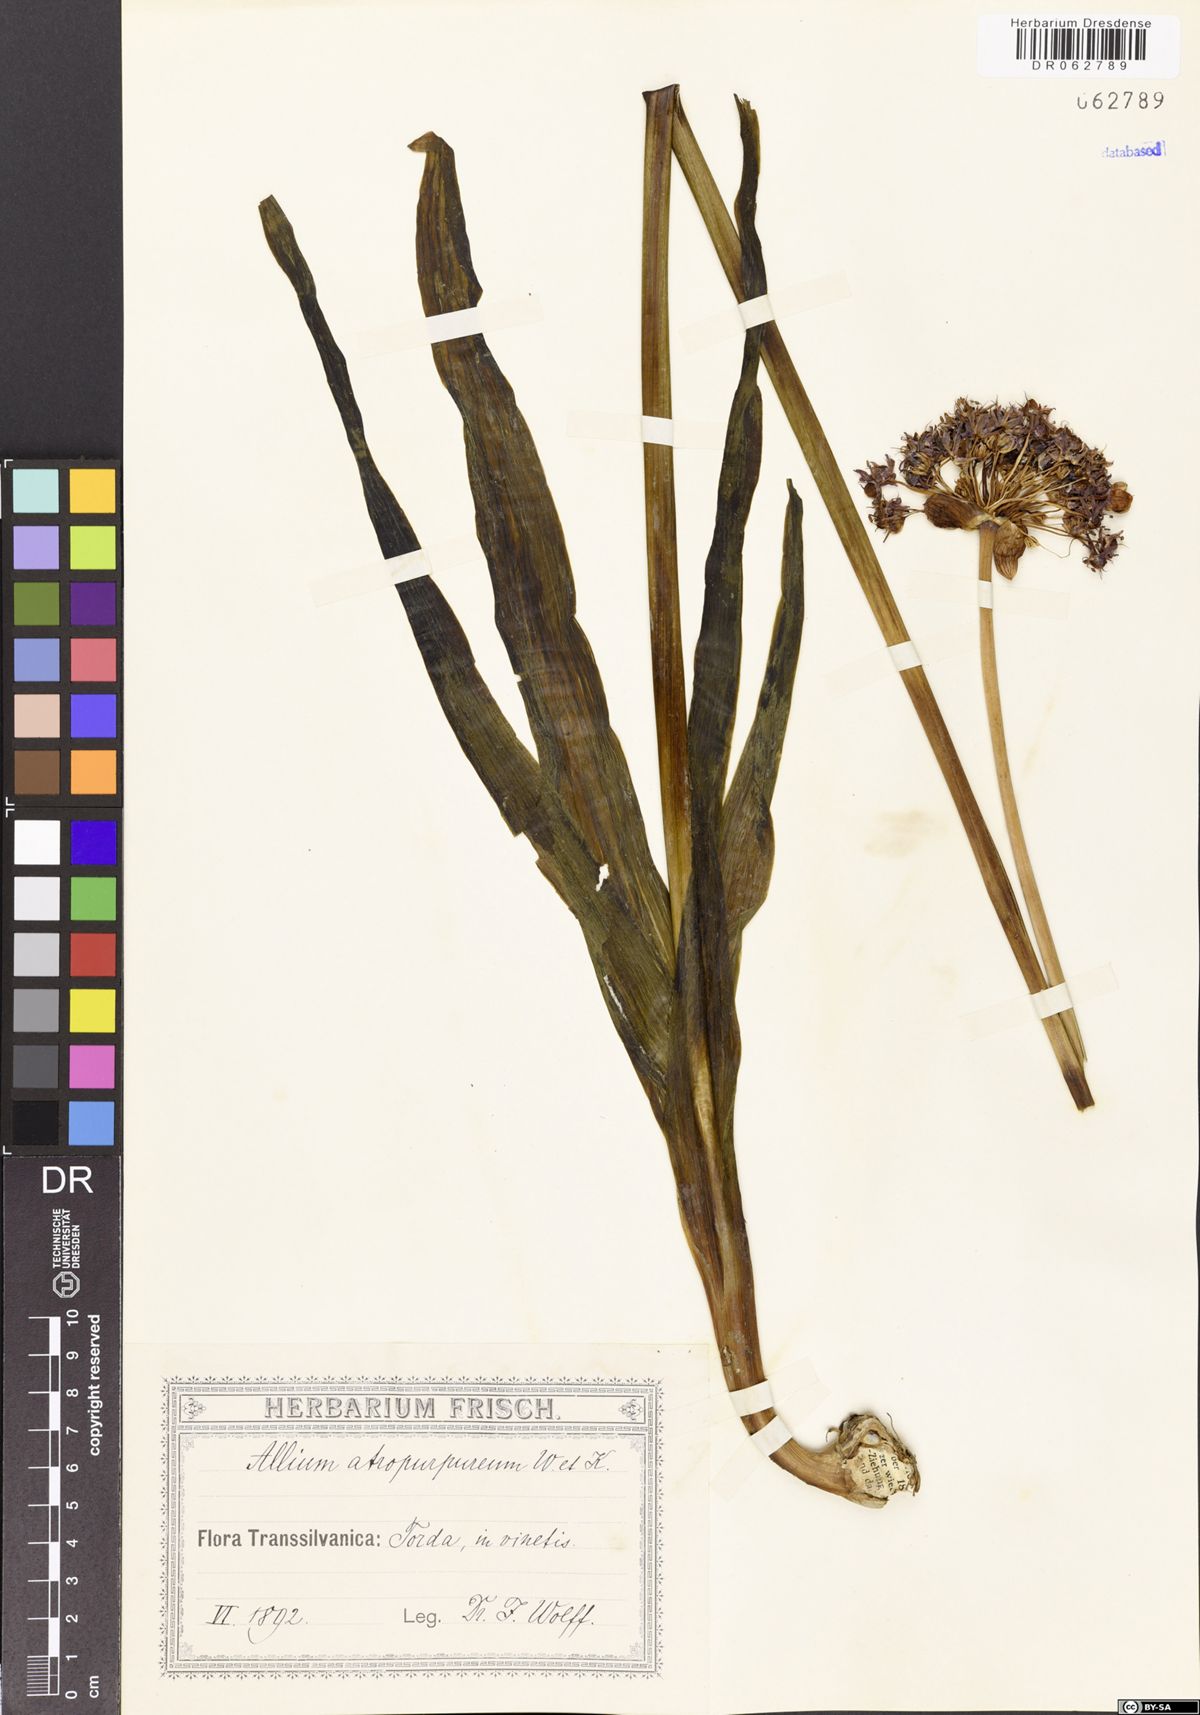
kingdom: Plantae
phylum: Tracheophyta
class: Liliopsida
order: Asparagales
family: Amaryllidaceae
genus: Allium
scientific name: Allium atropurpureum
